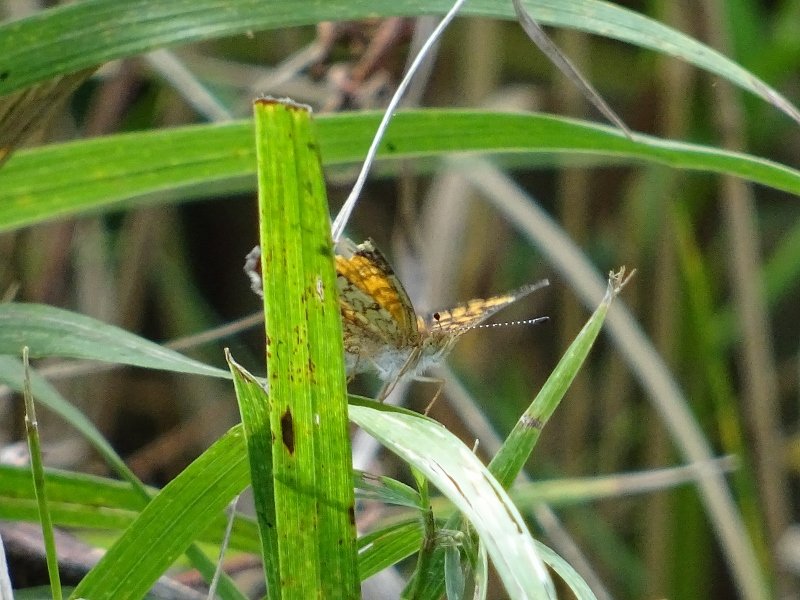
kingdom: Animalia
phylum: Arthropoda
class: Insecta
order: Lepidoptera
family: Nymphalidae
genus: Phyciodes
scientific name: Phyciodes tharos
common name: Pearl Crescent
